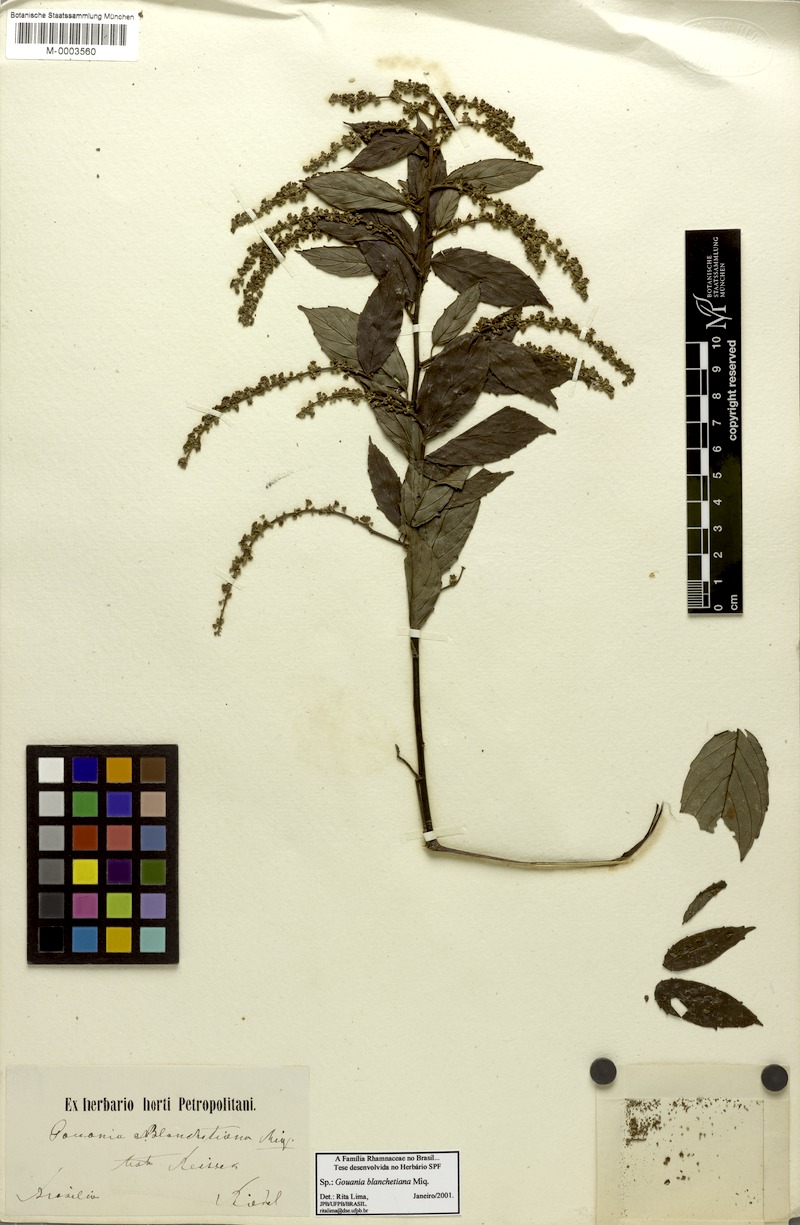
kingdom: Plantae
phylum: Tracheophyta
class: Magnoliopsida
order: Rosales
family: Rhamnaceae
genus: Gouania
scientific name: Gouania blanchetiana
